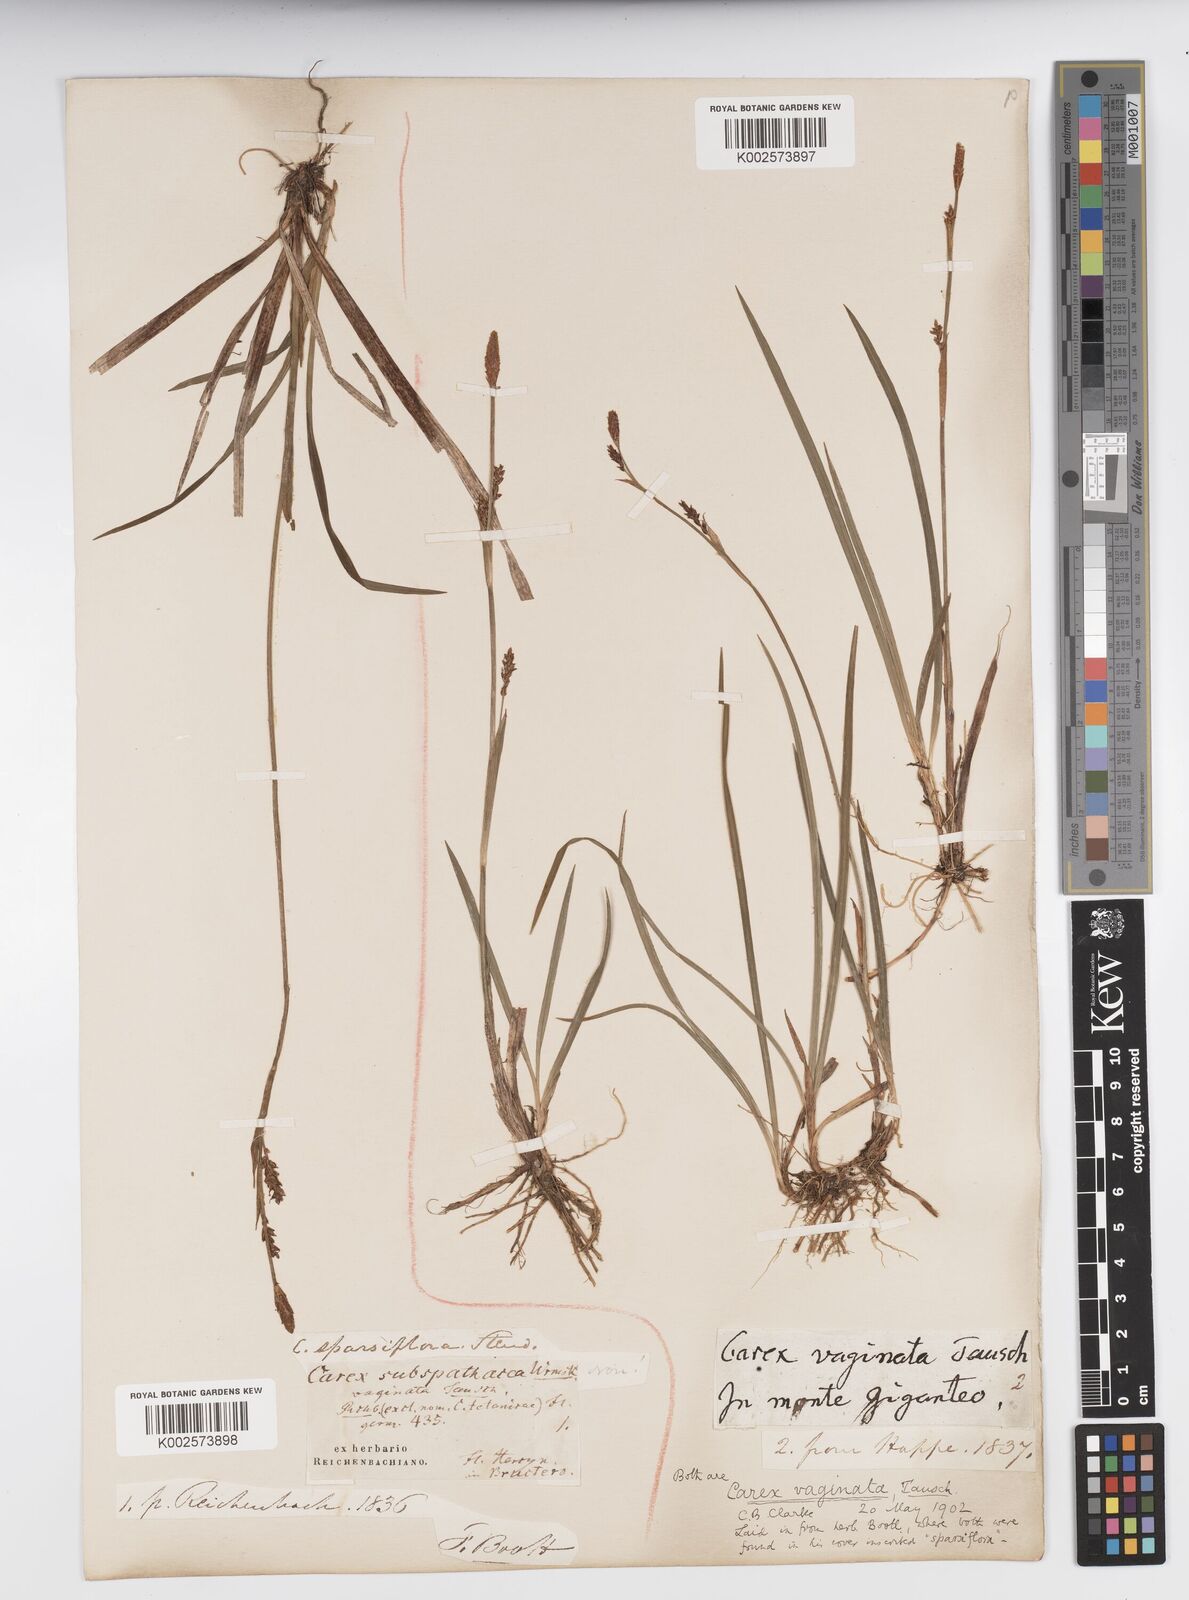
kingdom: Plantae
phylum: Tracheophyta
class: Liliopsida
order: Poales
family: Cyperaceae
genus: Carex
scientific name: Carex vaginata
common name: Sheathed sedge
